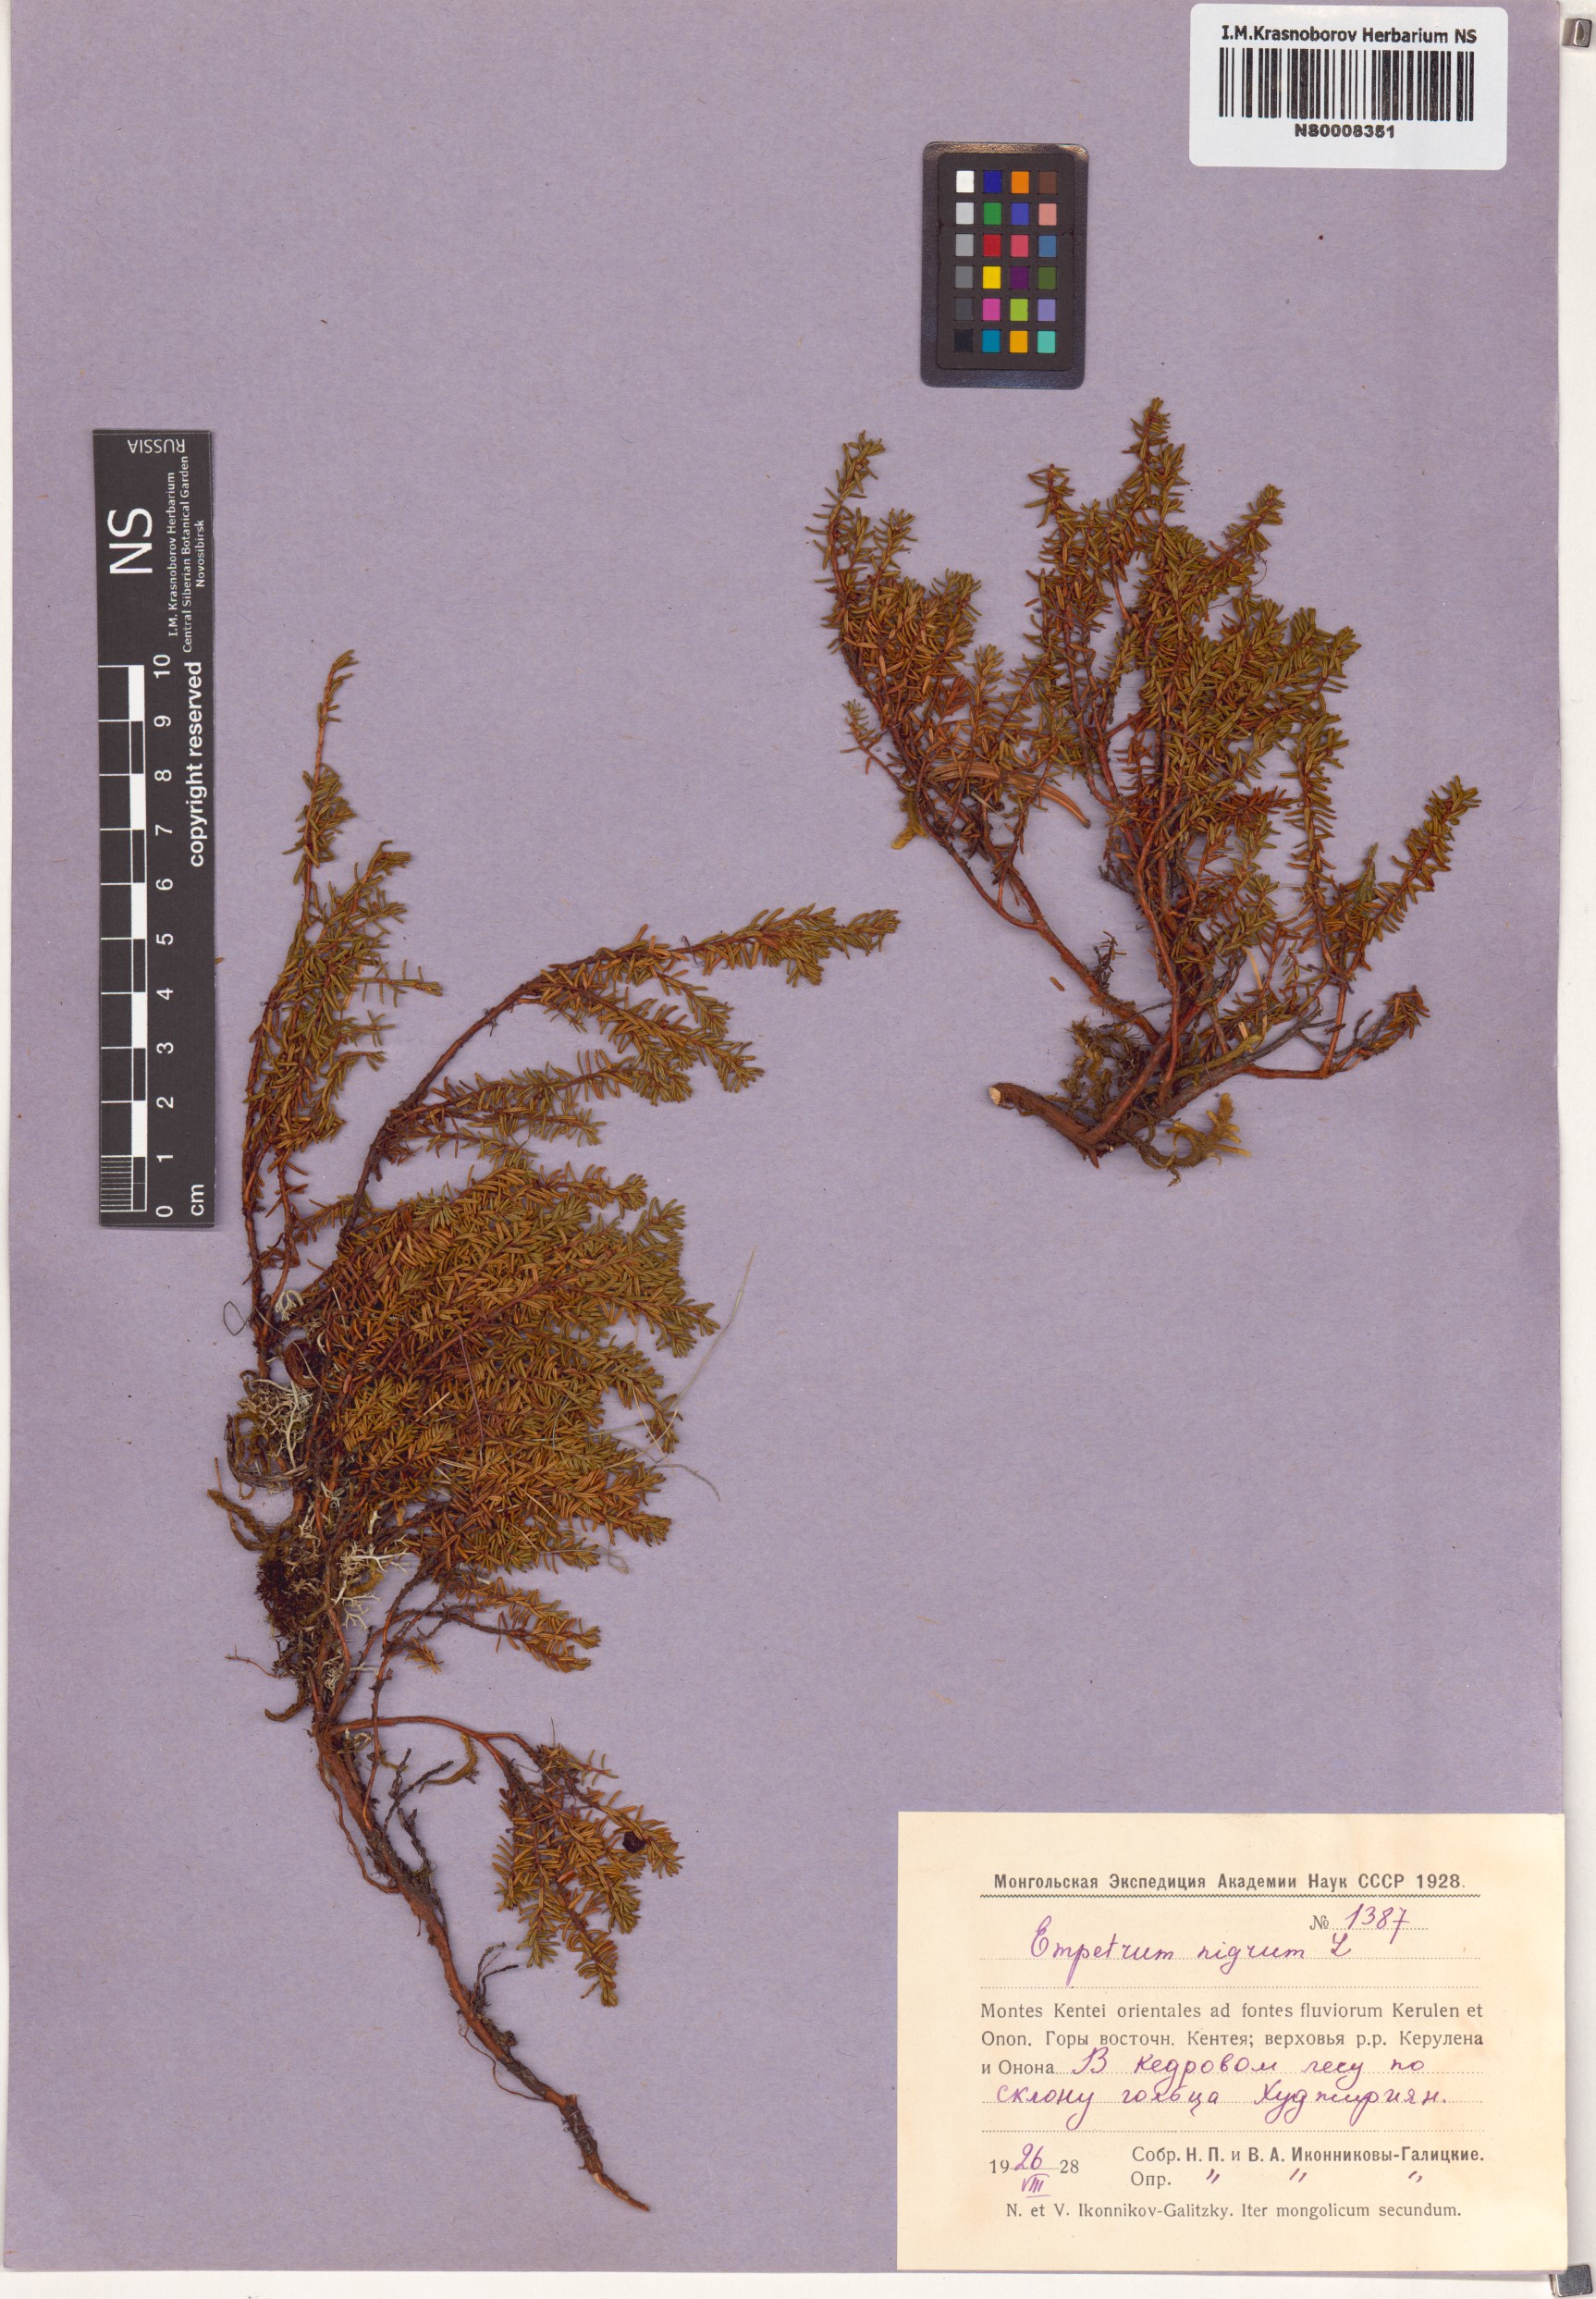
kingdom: Plantae
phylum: Tracheophyta
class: Magnoliopsida
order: Ericales
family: Ericaceae
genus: Empetrum
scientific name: Empetrum nigrum
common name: Black crowberry
